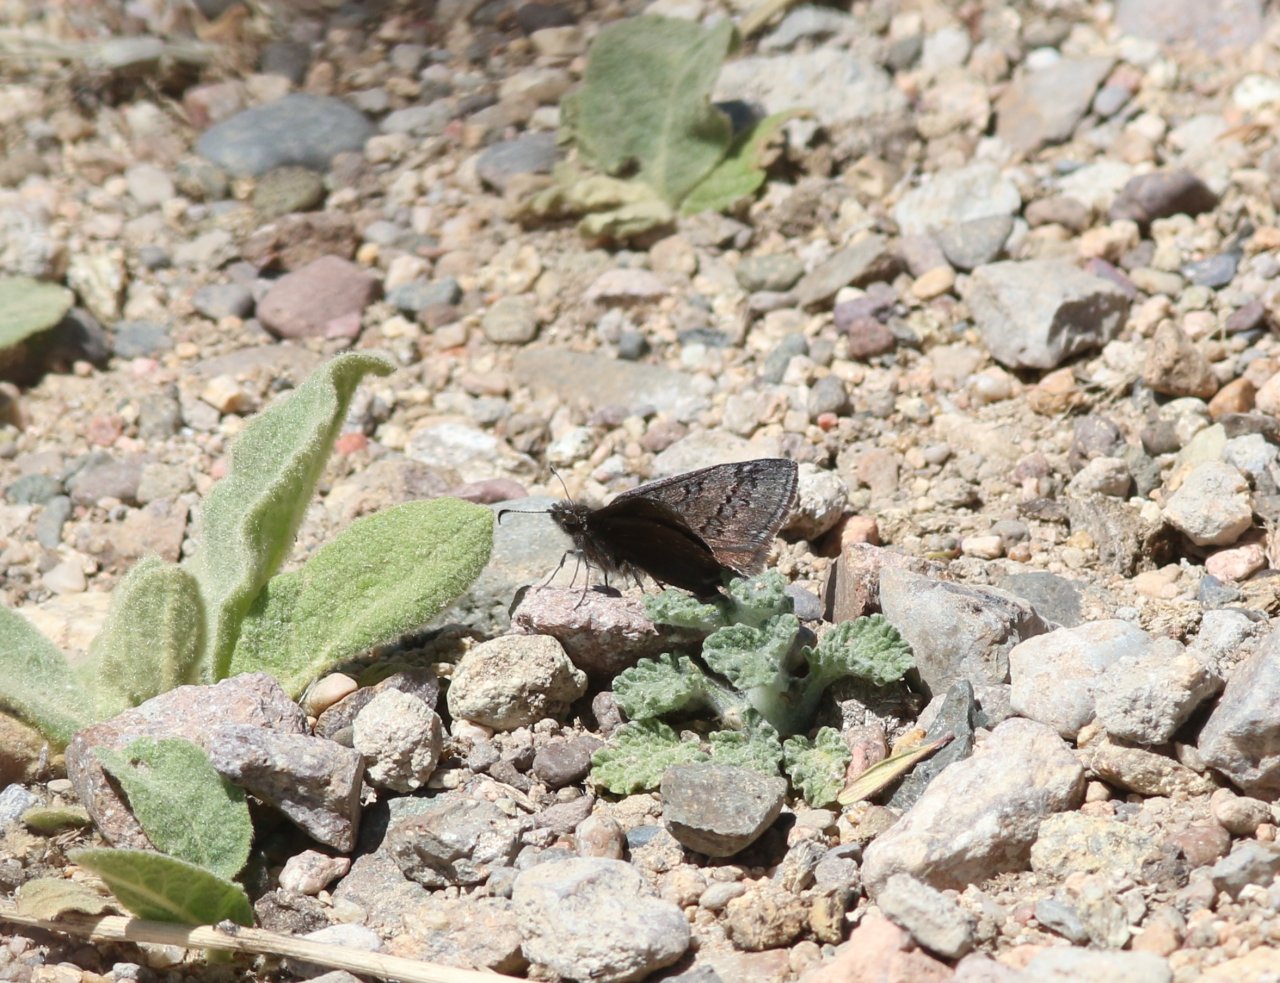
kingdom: Animalia
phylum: Arthropoda
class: Insecta
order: Lepidoptera
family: Hesperiidae
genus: Erynnis
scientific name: Erynnis brizo
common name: Sleepy Duskywing
